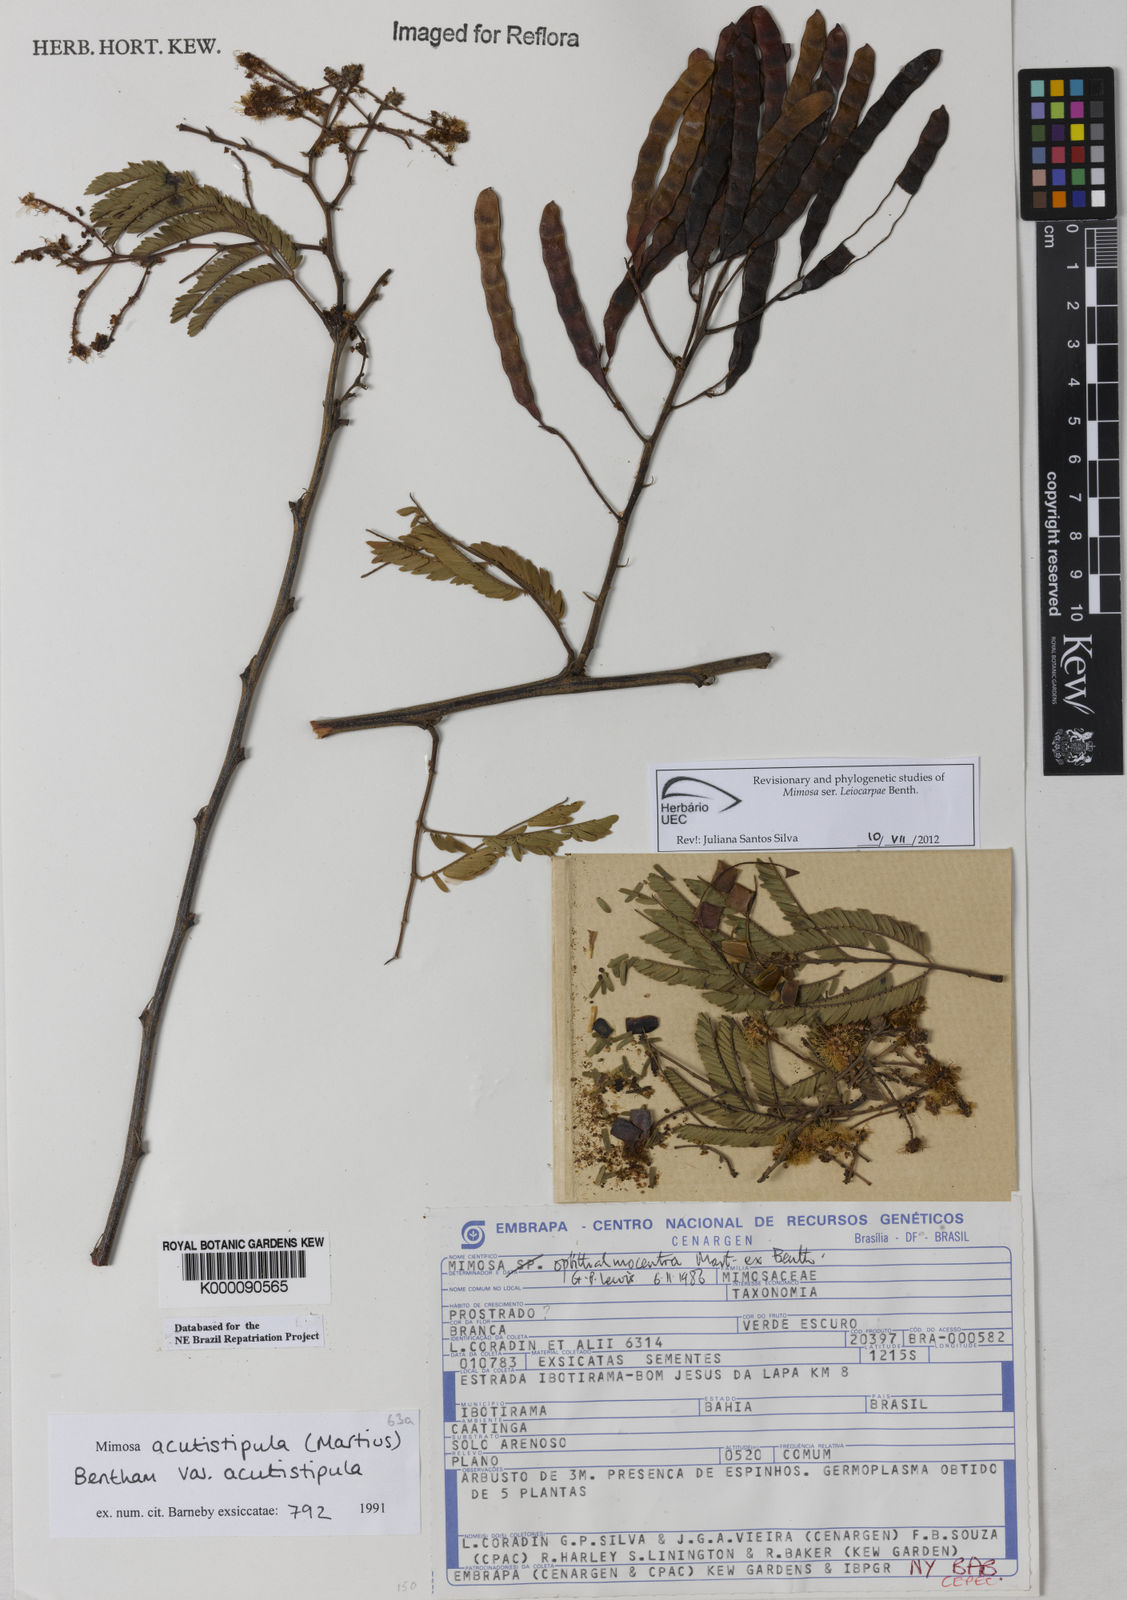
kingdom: Plantae
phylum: Tracheophyta
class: Magnoliopsida
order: Fabales
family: Fabaceae
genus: Mimosa
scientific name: Mimosa acutistipula
